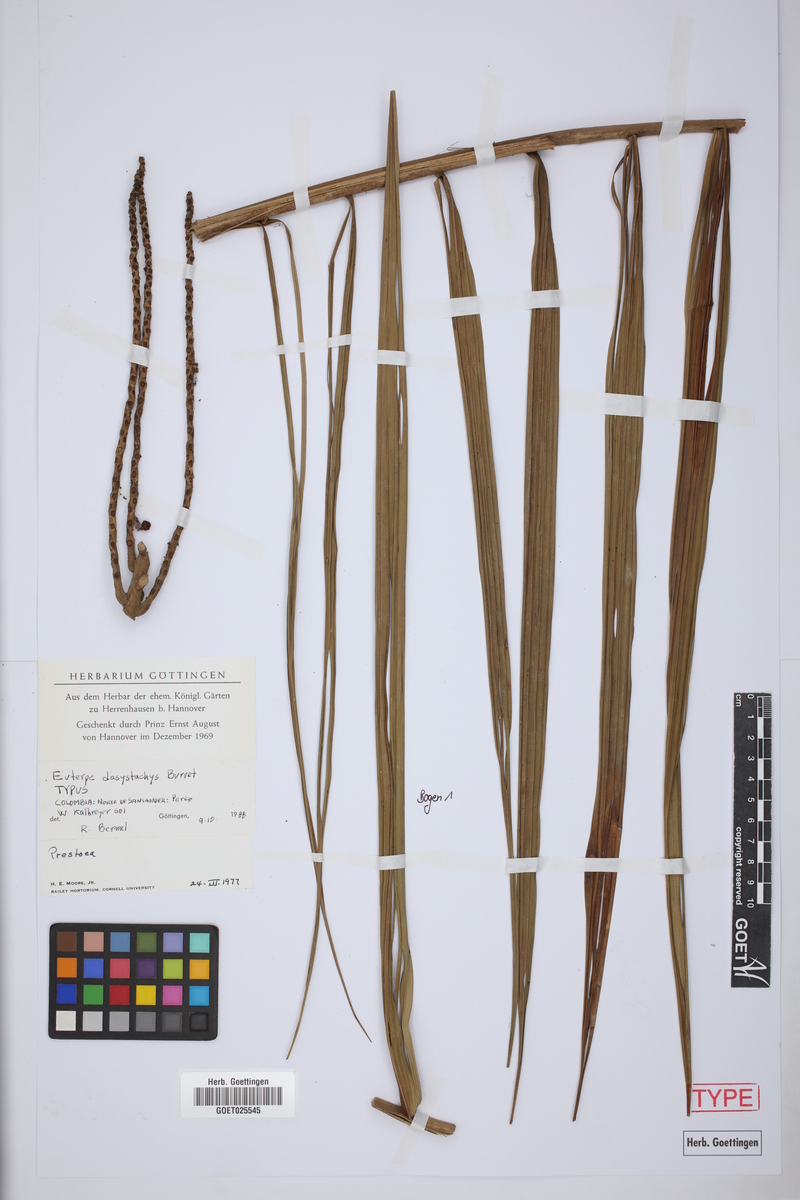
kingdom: Plantae
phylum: Tracheophyta
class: Liliopsida
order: Arecales
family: Arecaceae
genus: Prestoea
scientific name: Prestoea
